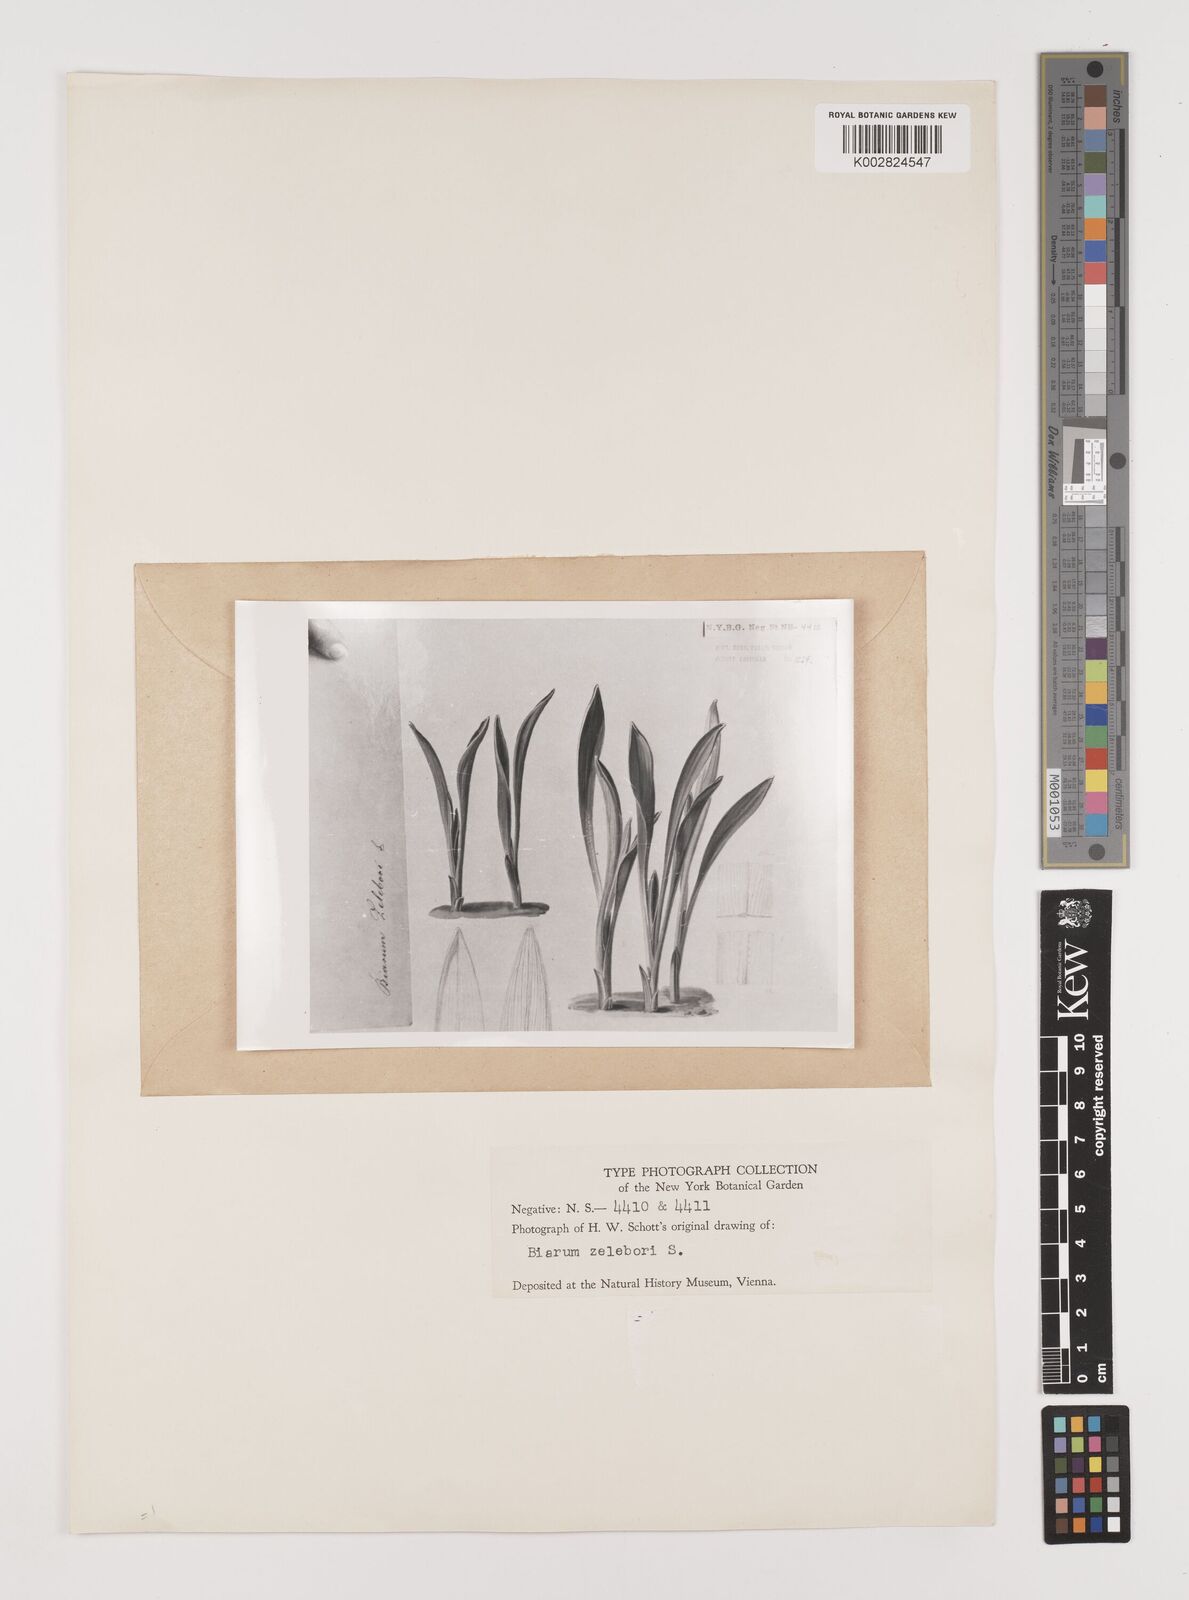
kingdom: Plantae
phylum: Tracheophyta
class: Liliopsida
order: Alismatales
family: Araceae
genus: Biarum
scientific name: Biarum tenuifolium
